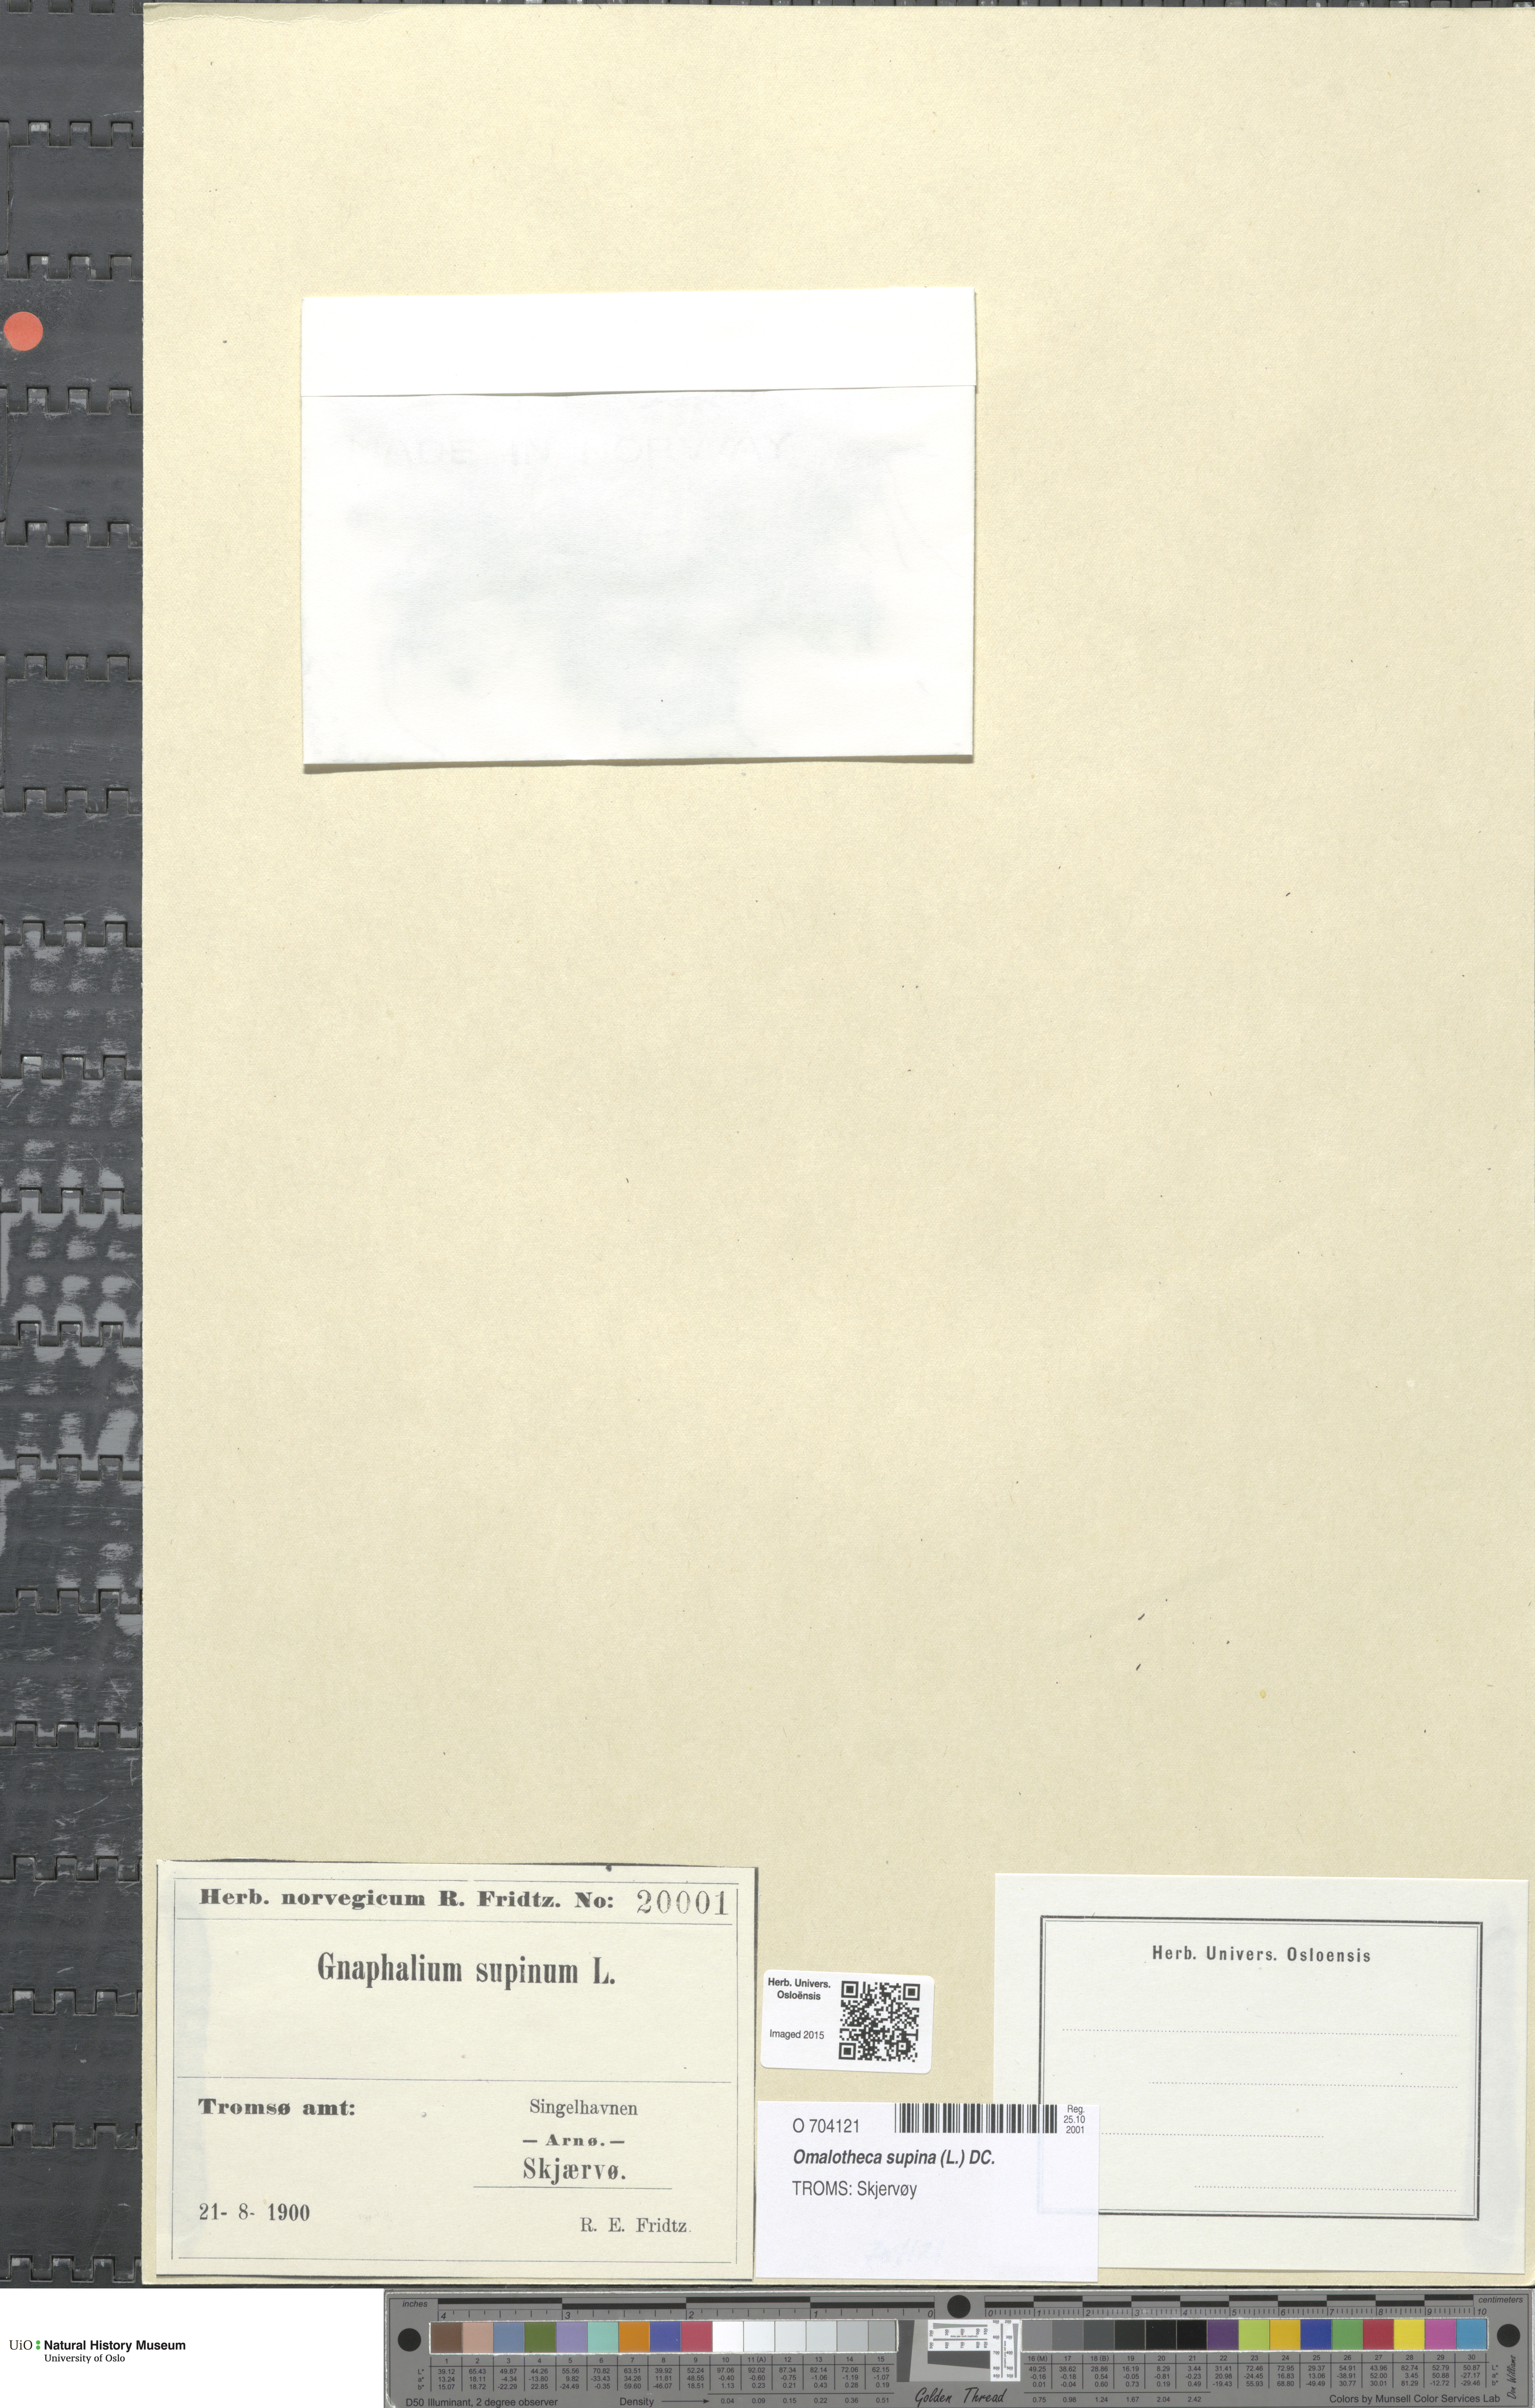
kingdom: Plantae
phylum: Tracheophyta
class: Magnoliopsida
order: Asterales
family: Asteraceae
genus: Omalotheca
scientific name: Omalotheca supina
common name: Alpine arctic-cudweed
